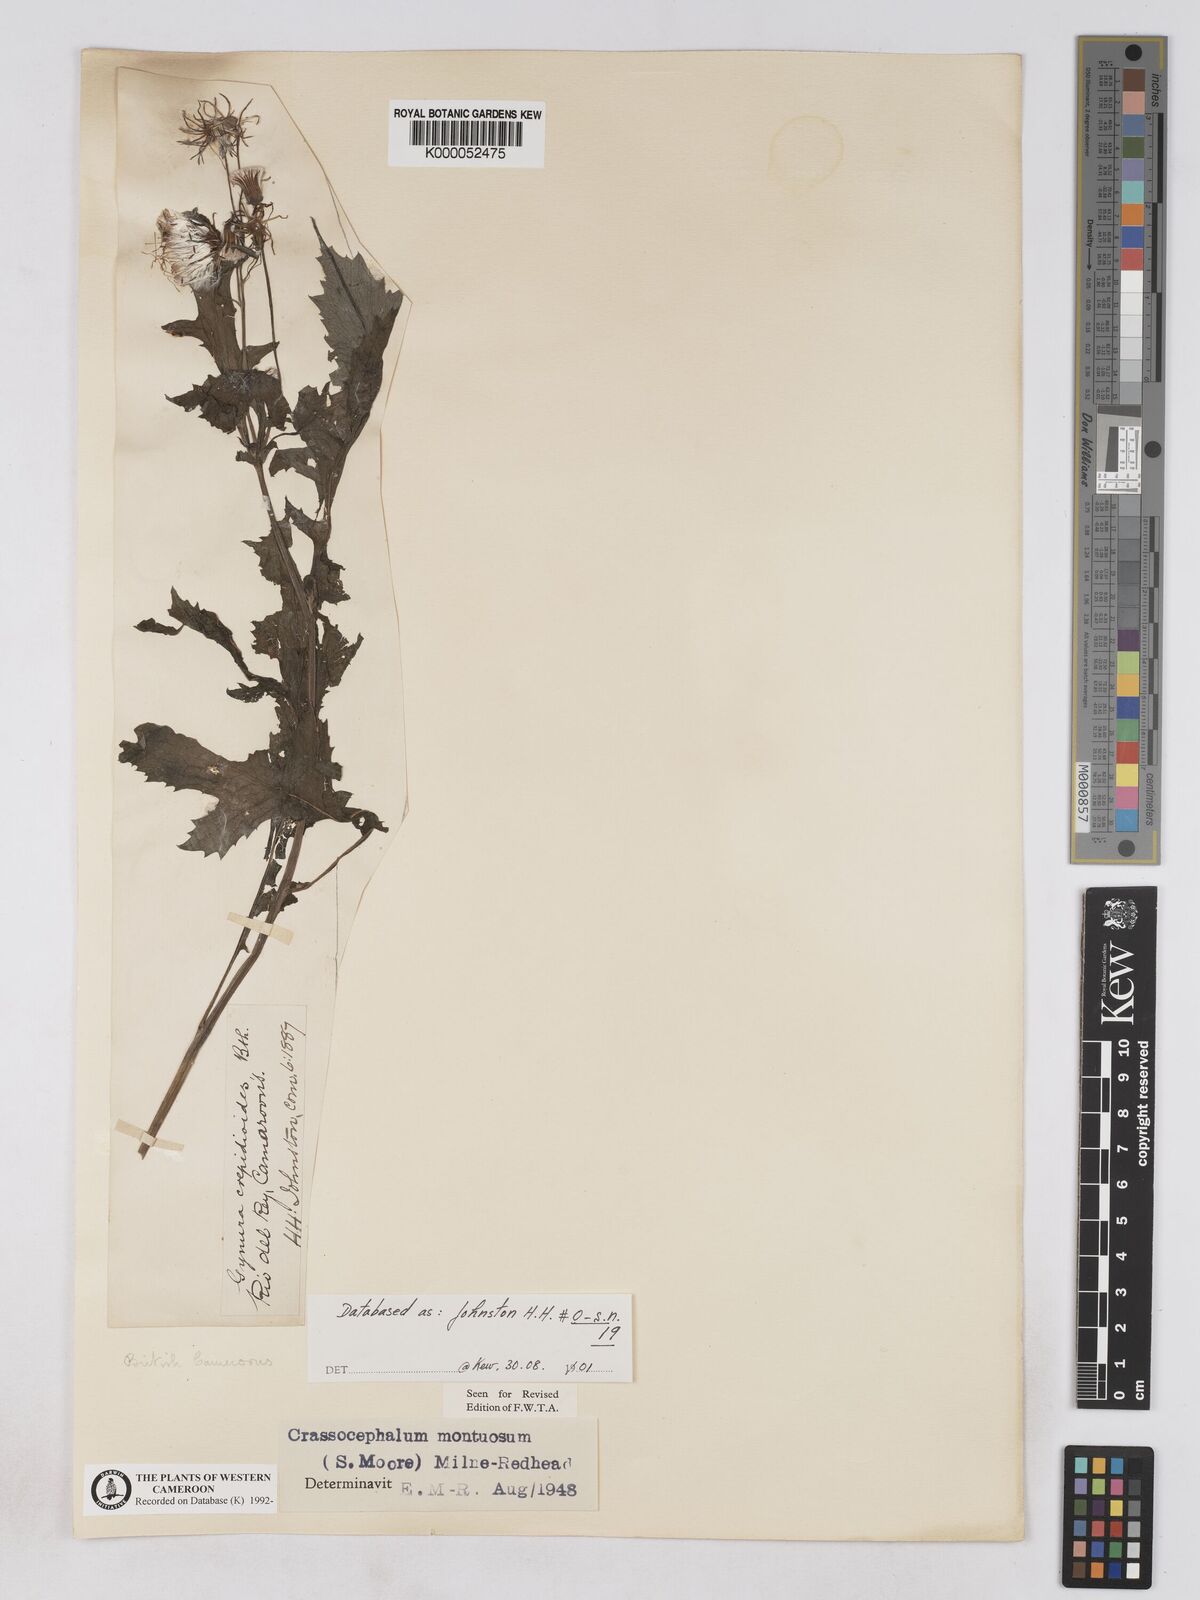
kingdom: Plantae
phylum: Tracheophyta
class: Magnoliopsida
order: Asterales
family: Asteraceae
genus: Crassocephalum
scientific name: Crassocephalum montuosum
